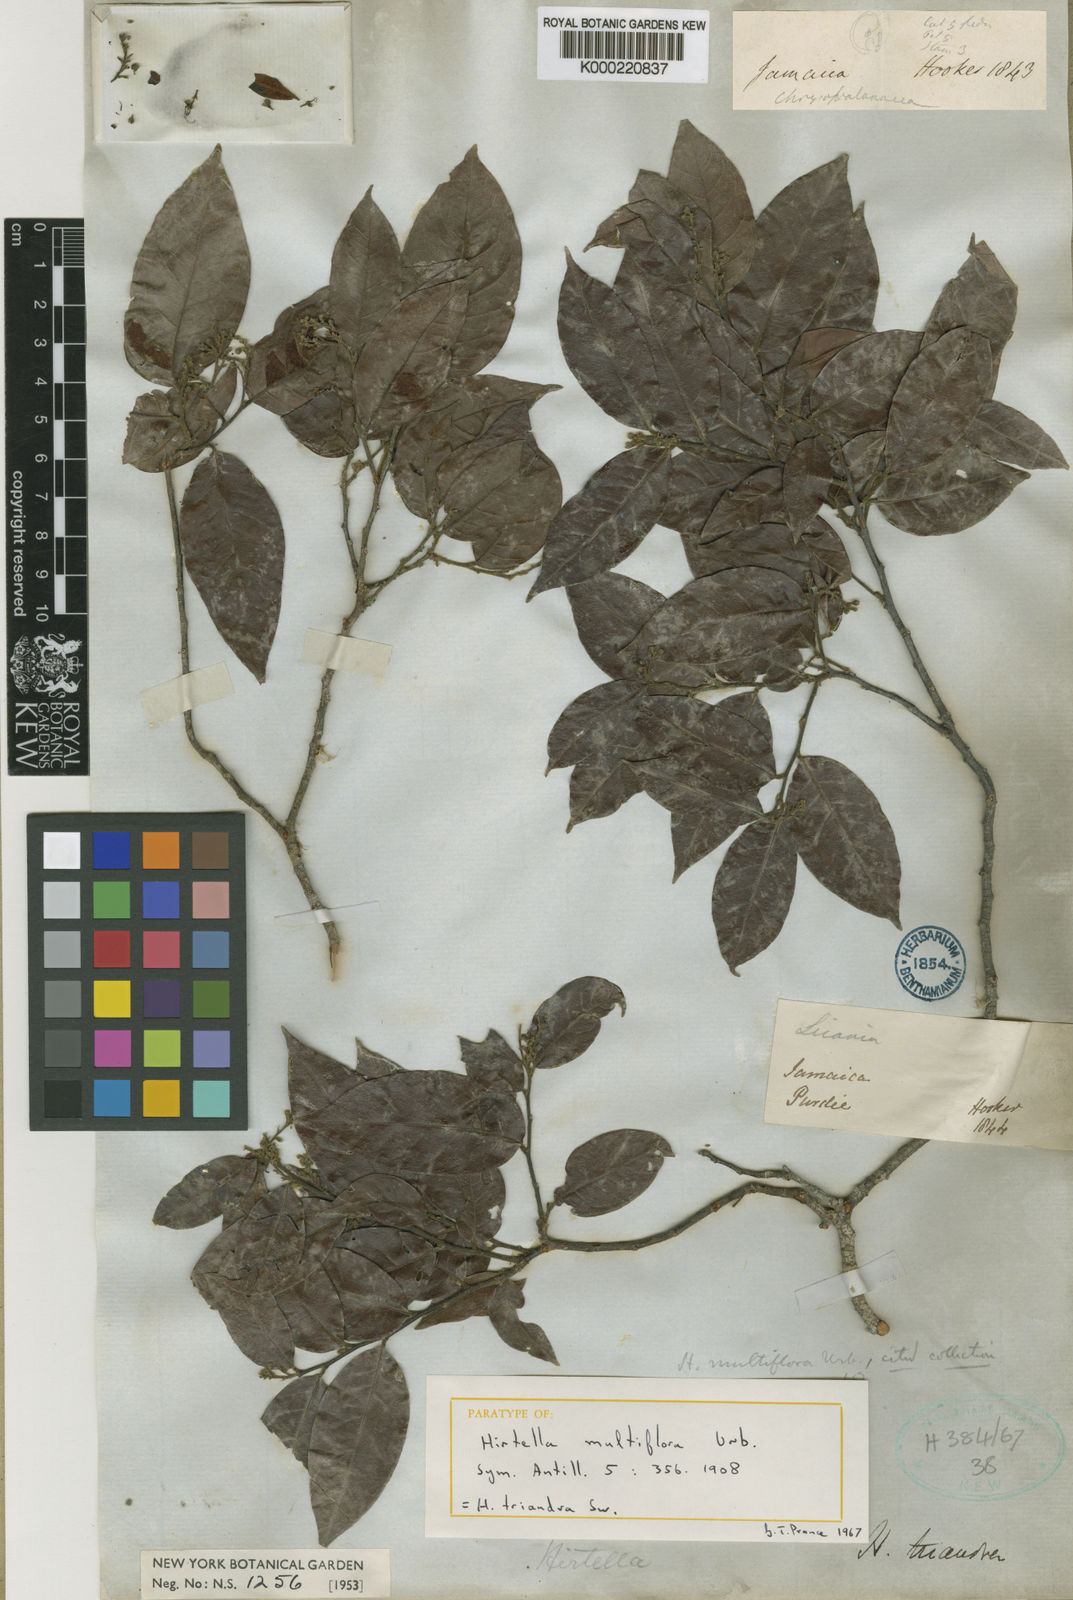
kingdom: Plantae
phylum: Tracheophyta
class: Magnoliopsida
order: Malpighiales
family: Chrysobalanaceae
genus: Hirtella
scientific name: Hirtella triandra
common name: Hairy plum
